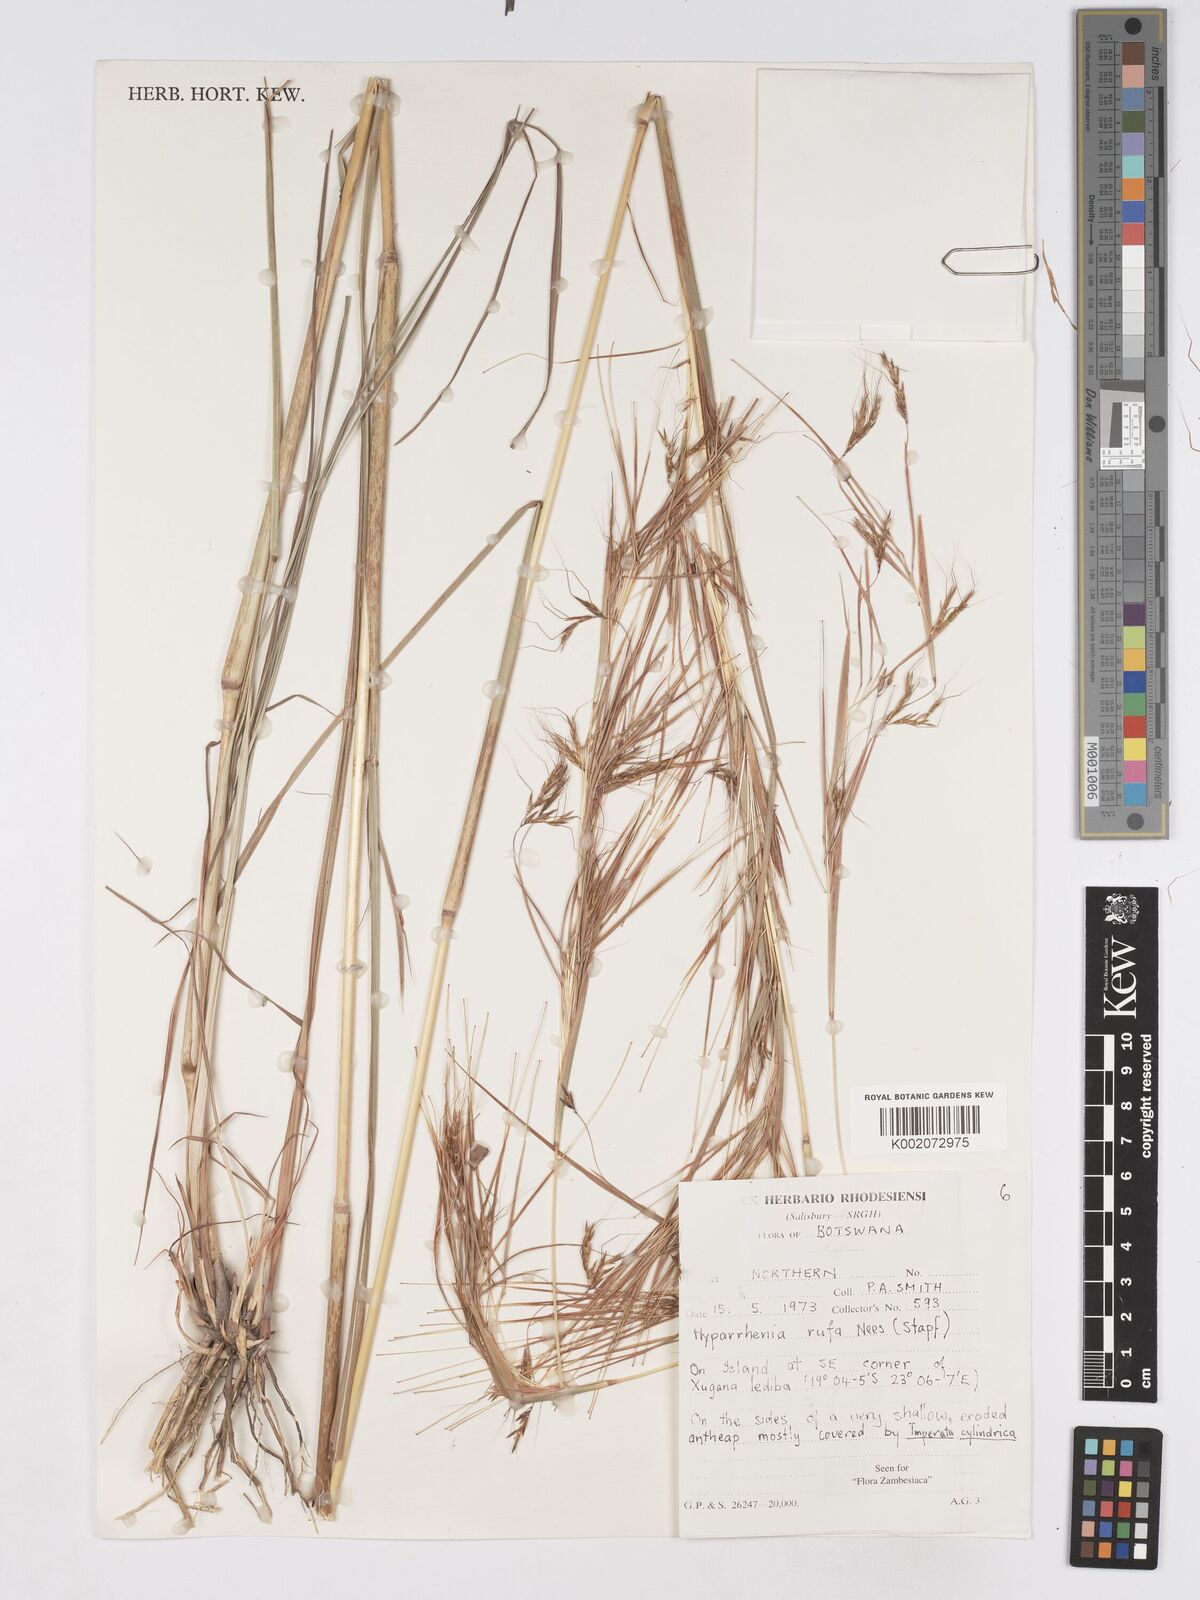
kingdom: Plantae
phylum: Tracheophyta
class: Liliopsida
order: Poales
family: Poaceae
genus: Hyparrhenia
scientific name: Hyparrhenia rufa
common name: Jaraguagrass
